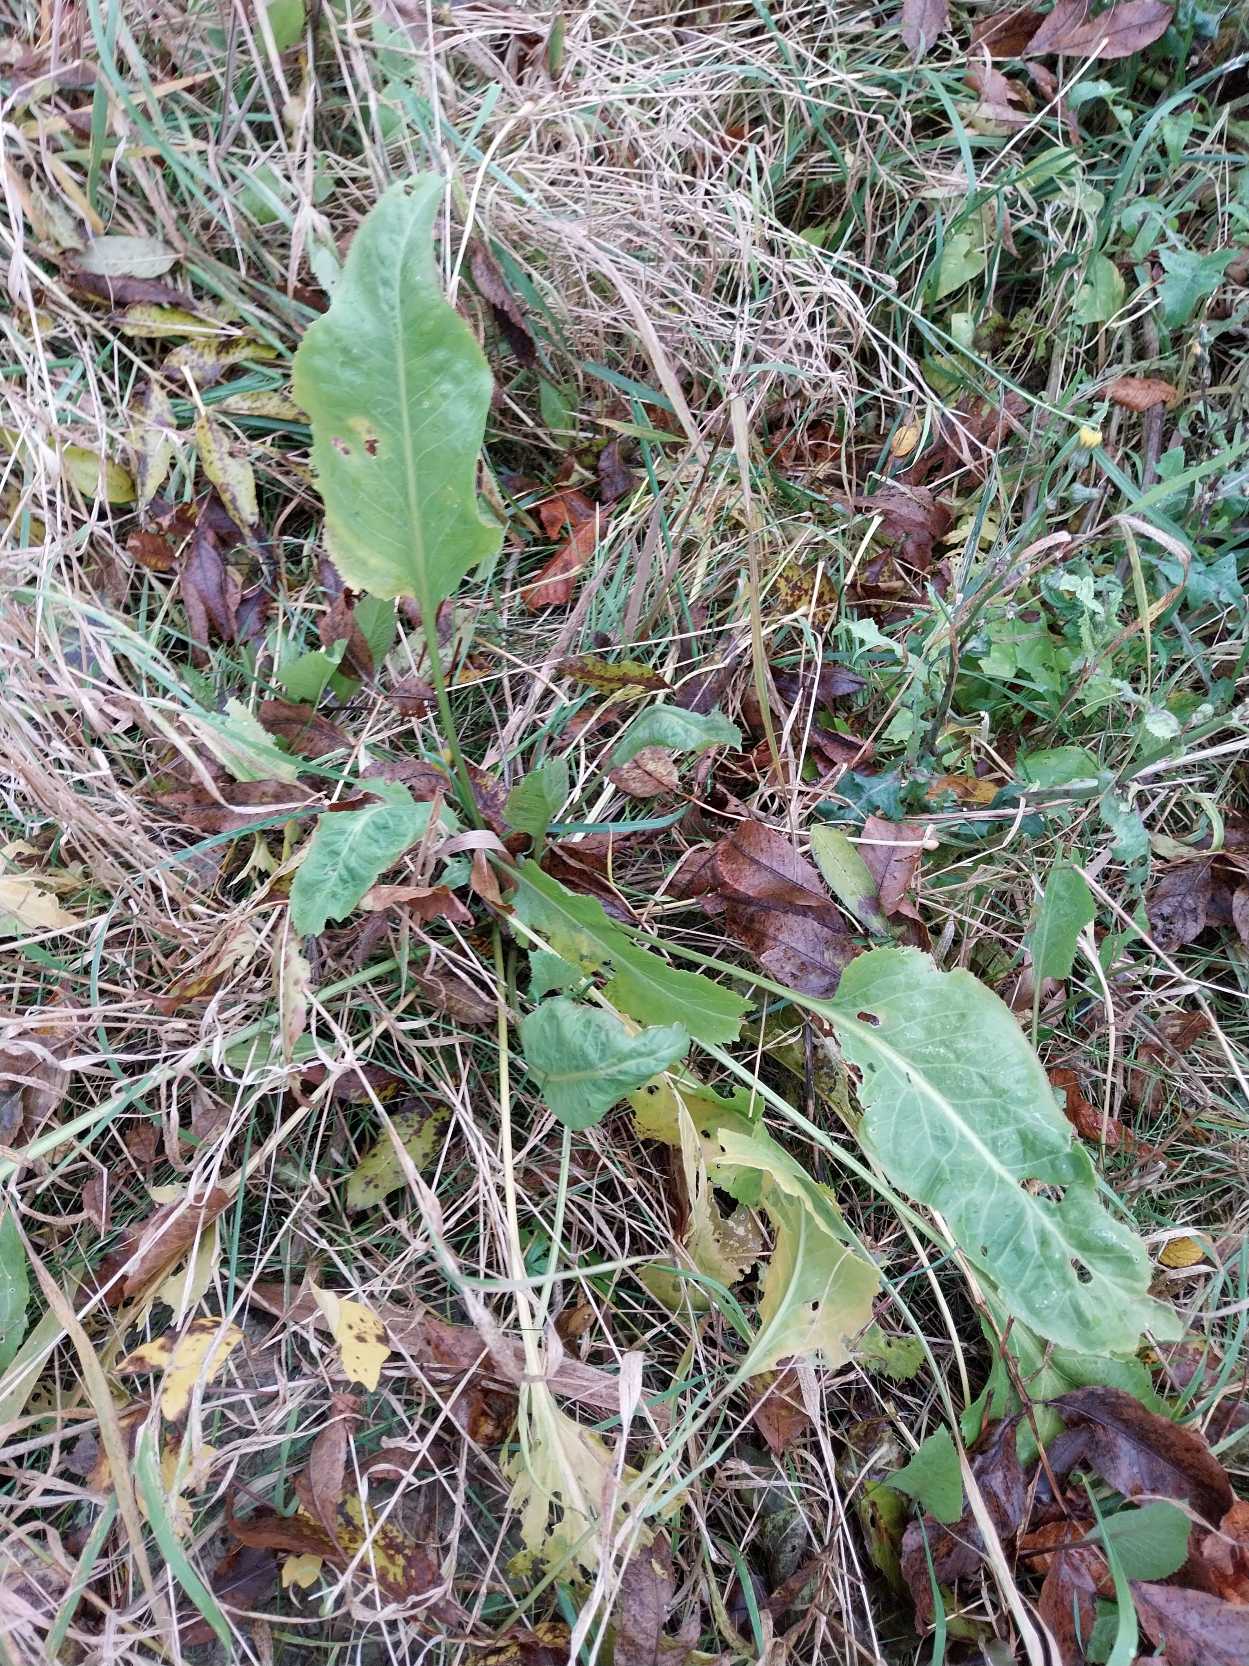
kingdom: Plantae
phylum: Tracheophyta
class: Magnoliopsida
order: Brassicales
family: Brassicaceae
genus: Lepidium
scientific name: Lepidium latifolium
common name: Strand-karse
